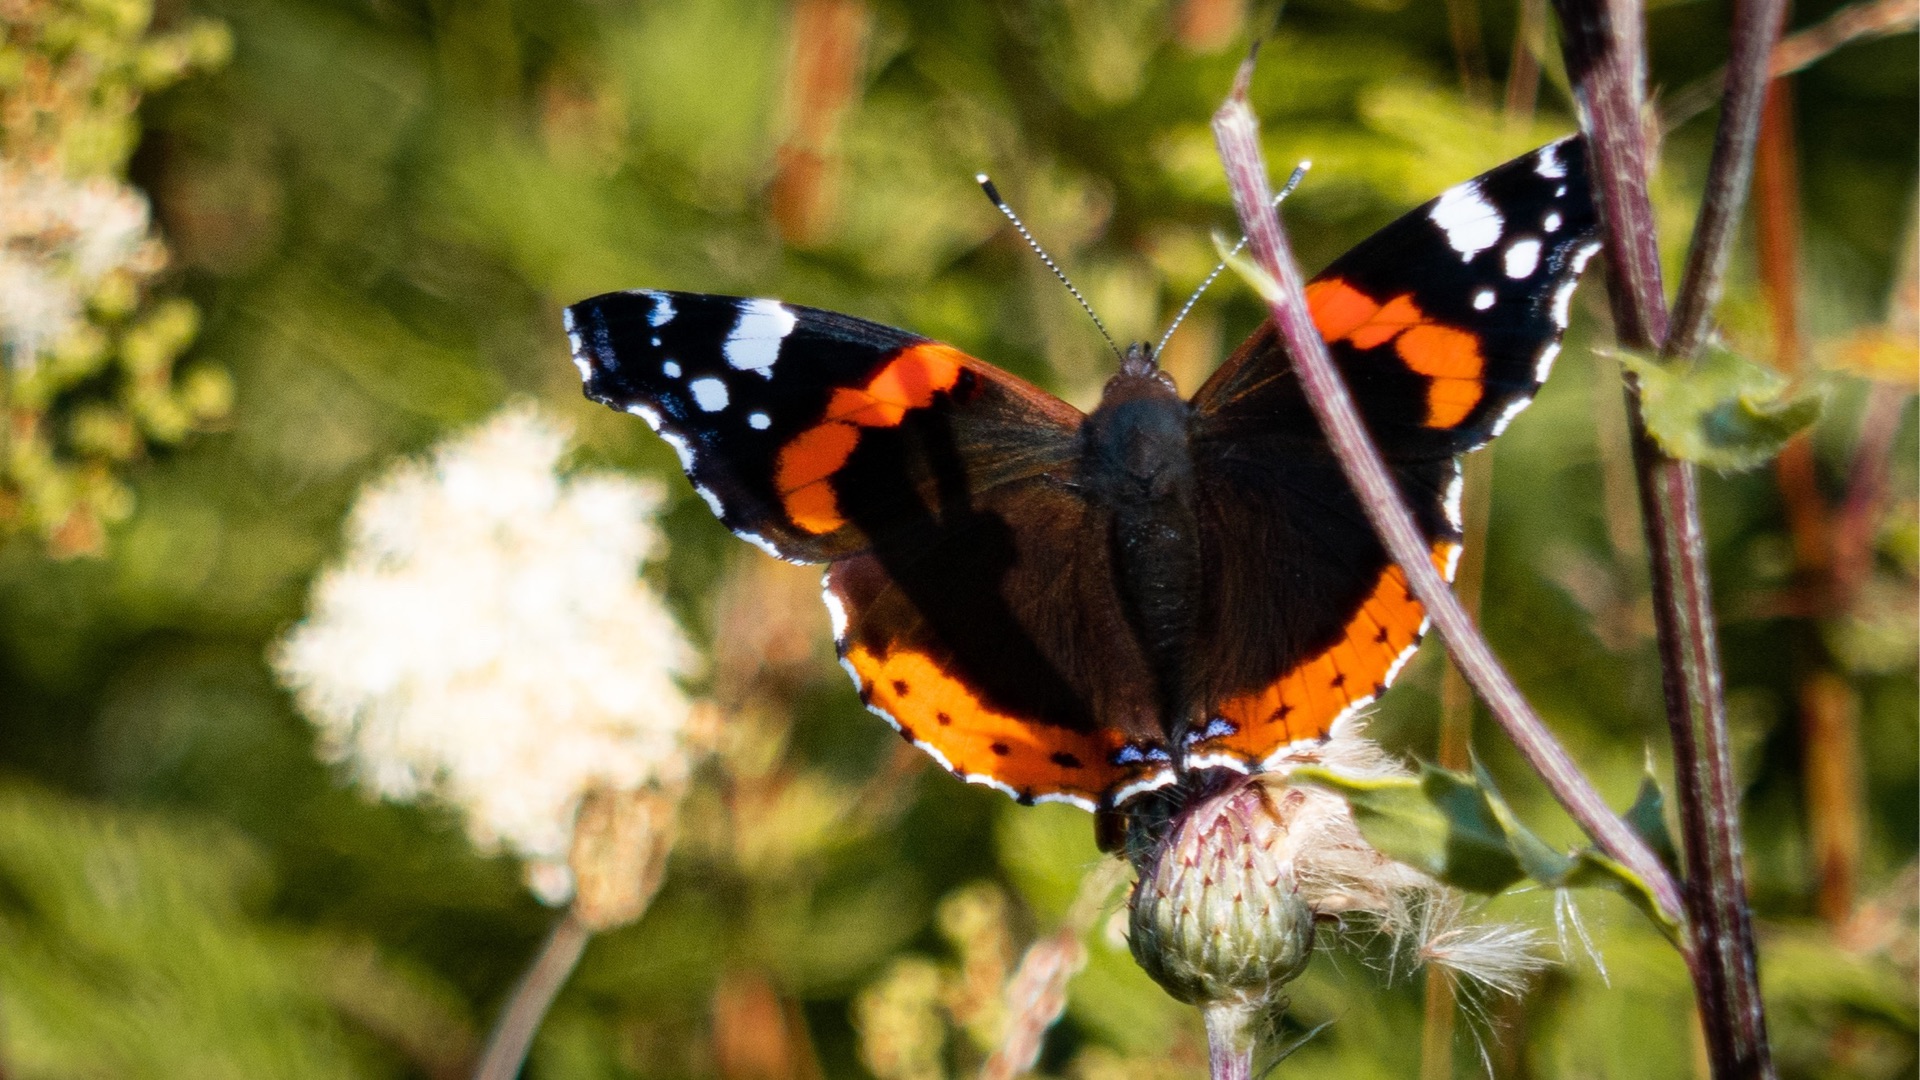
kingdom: Animalia
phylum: Arthropoda
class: Insecta
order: Lepidoptera
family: Nymphalidae
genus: Vanessa
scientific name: Vanessa atalanta
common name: Admiral
